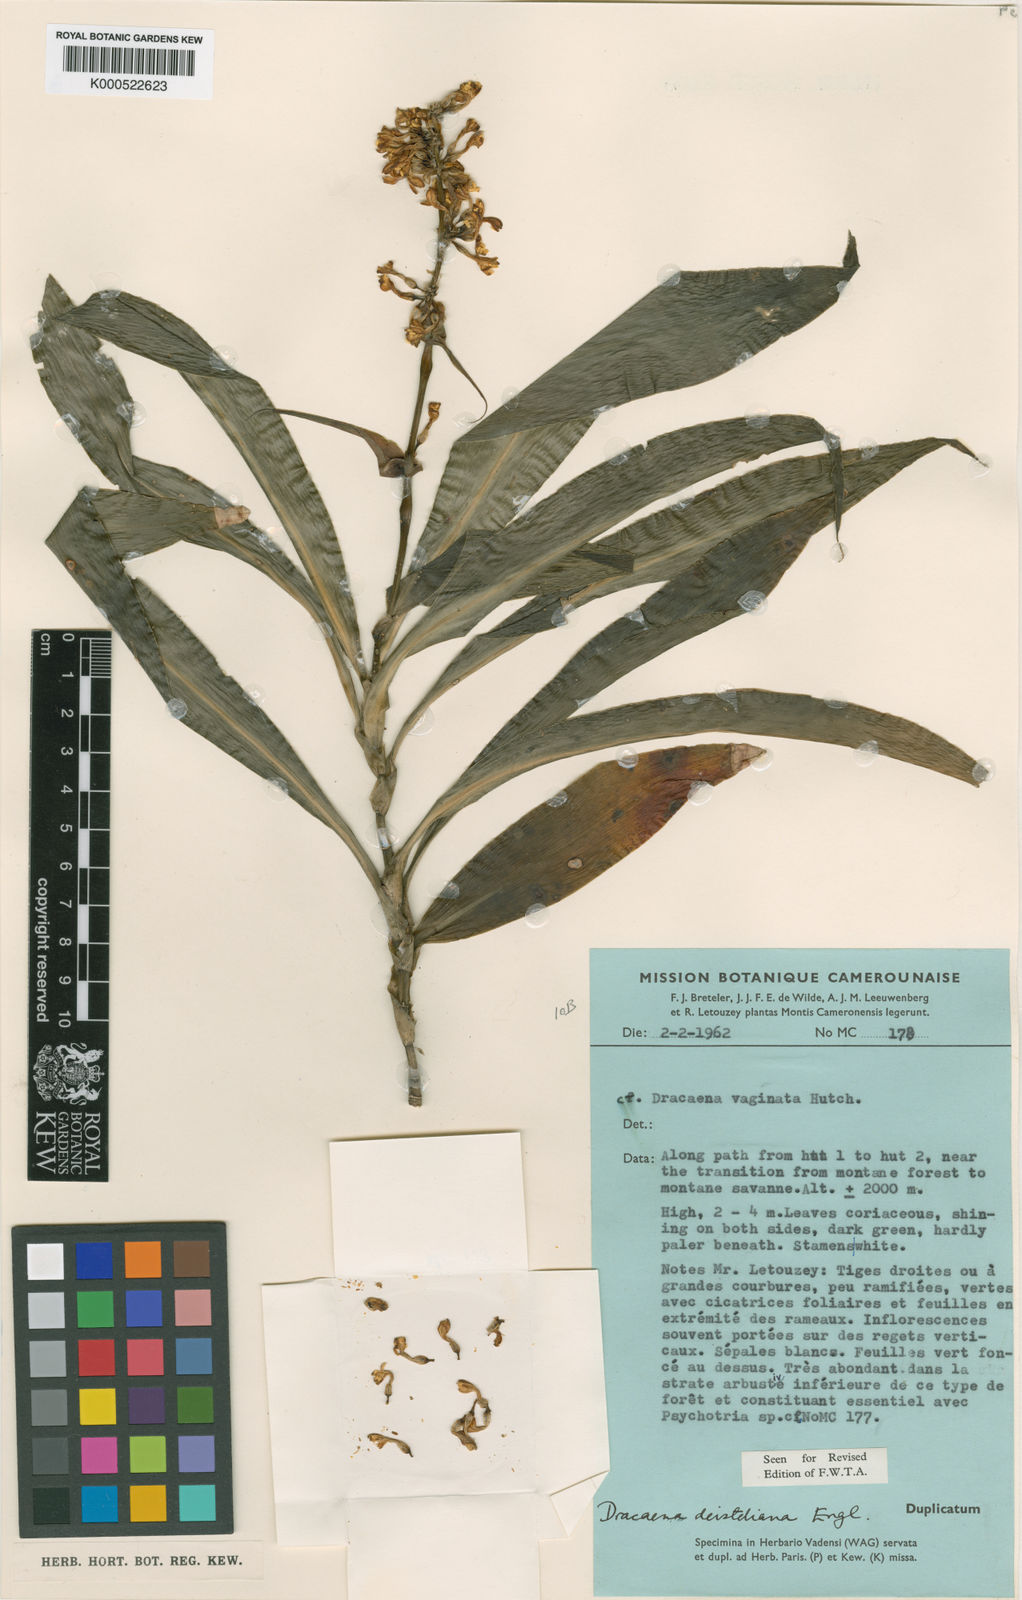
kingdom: Plantae
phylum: Tracheophyta
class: Liliopsida
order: Asparagales
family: Asparagaceae
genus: Dracaena
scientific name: Dracaena fragrans
